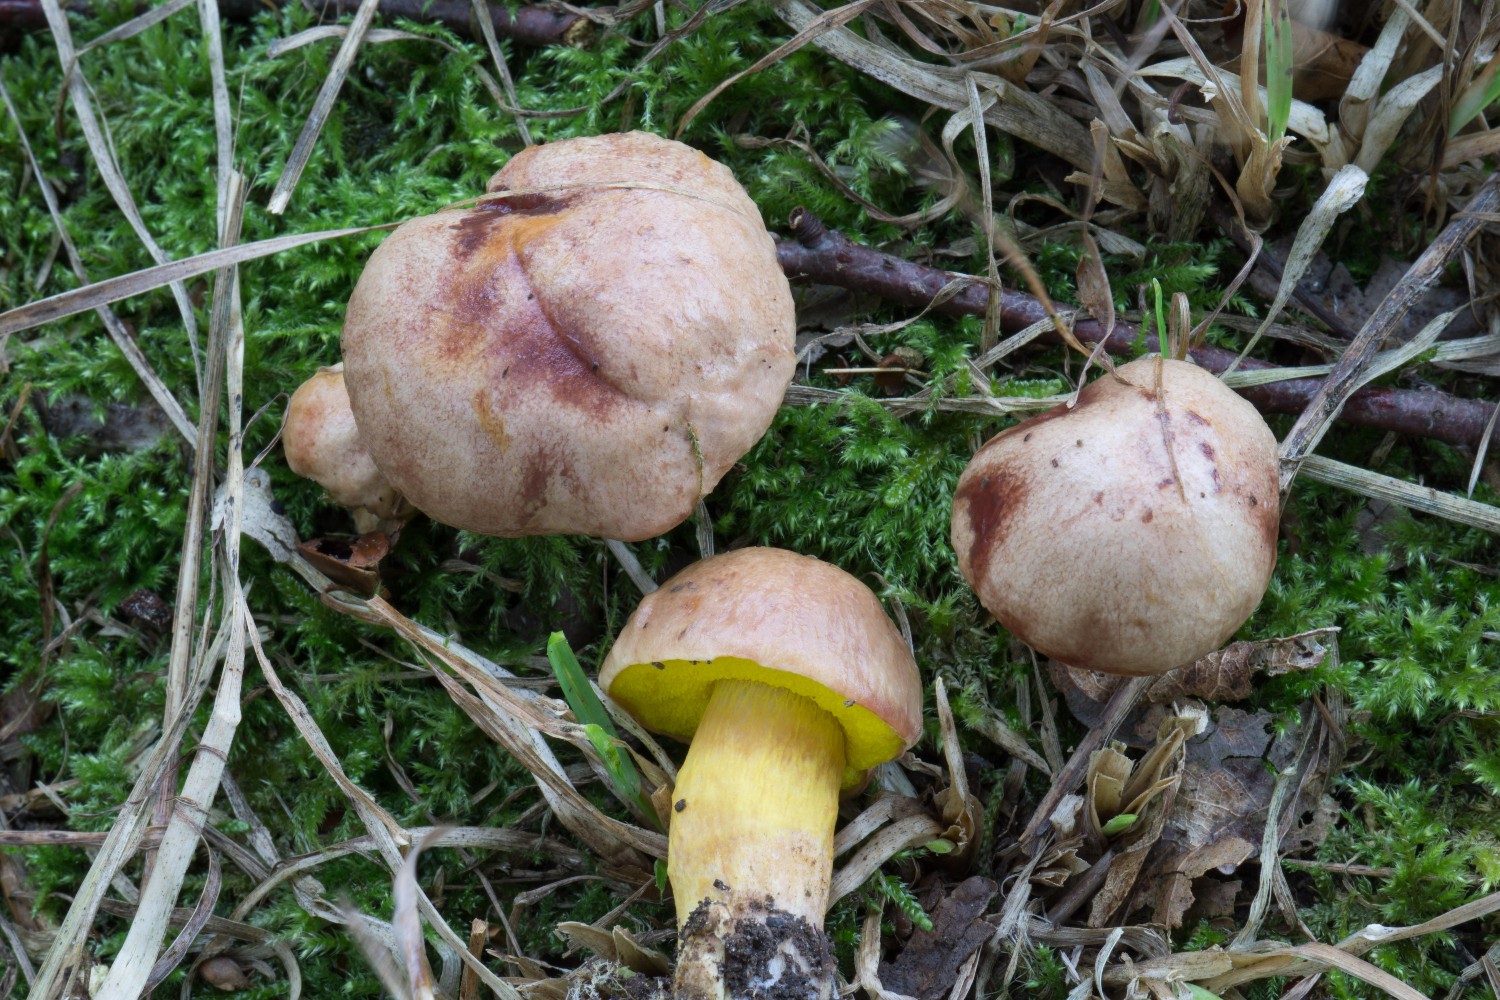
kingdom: Fungi
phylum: Basidiomycota
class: Agaricomycetes
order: Boletales
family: Boletaceae
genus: Aureoboletus
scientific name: Aureoboletus gentilis
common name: guldrørhat
